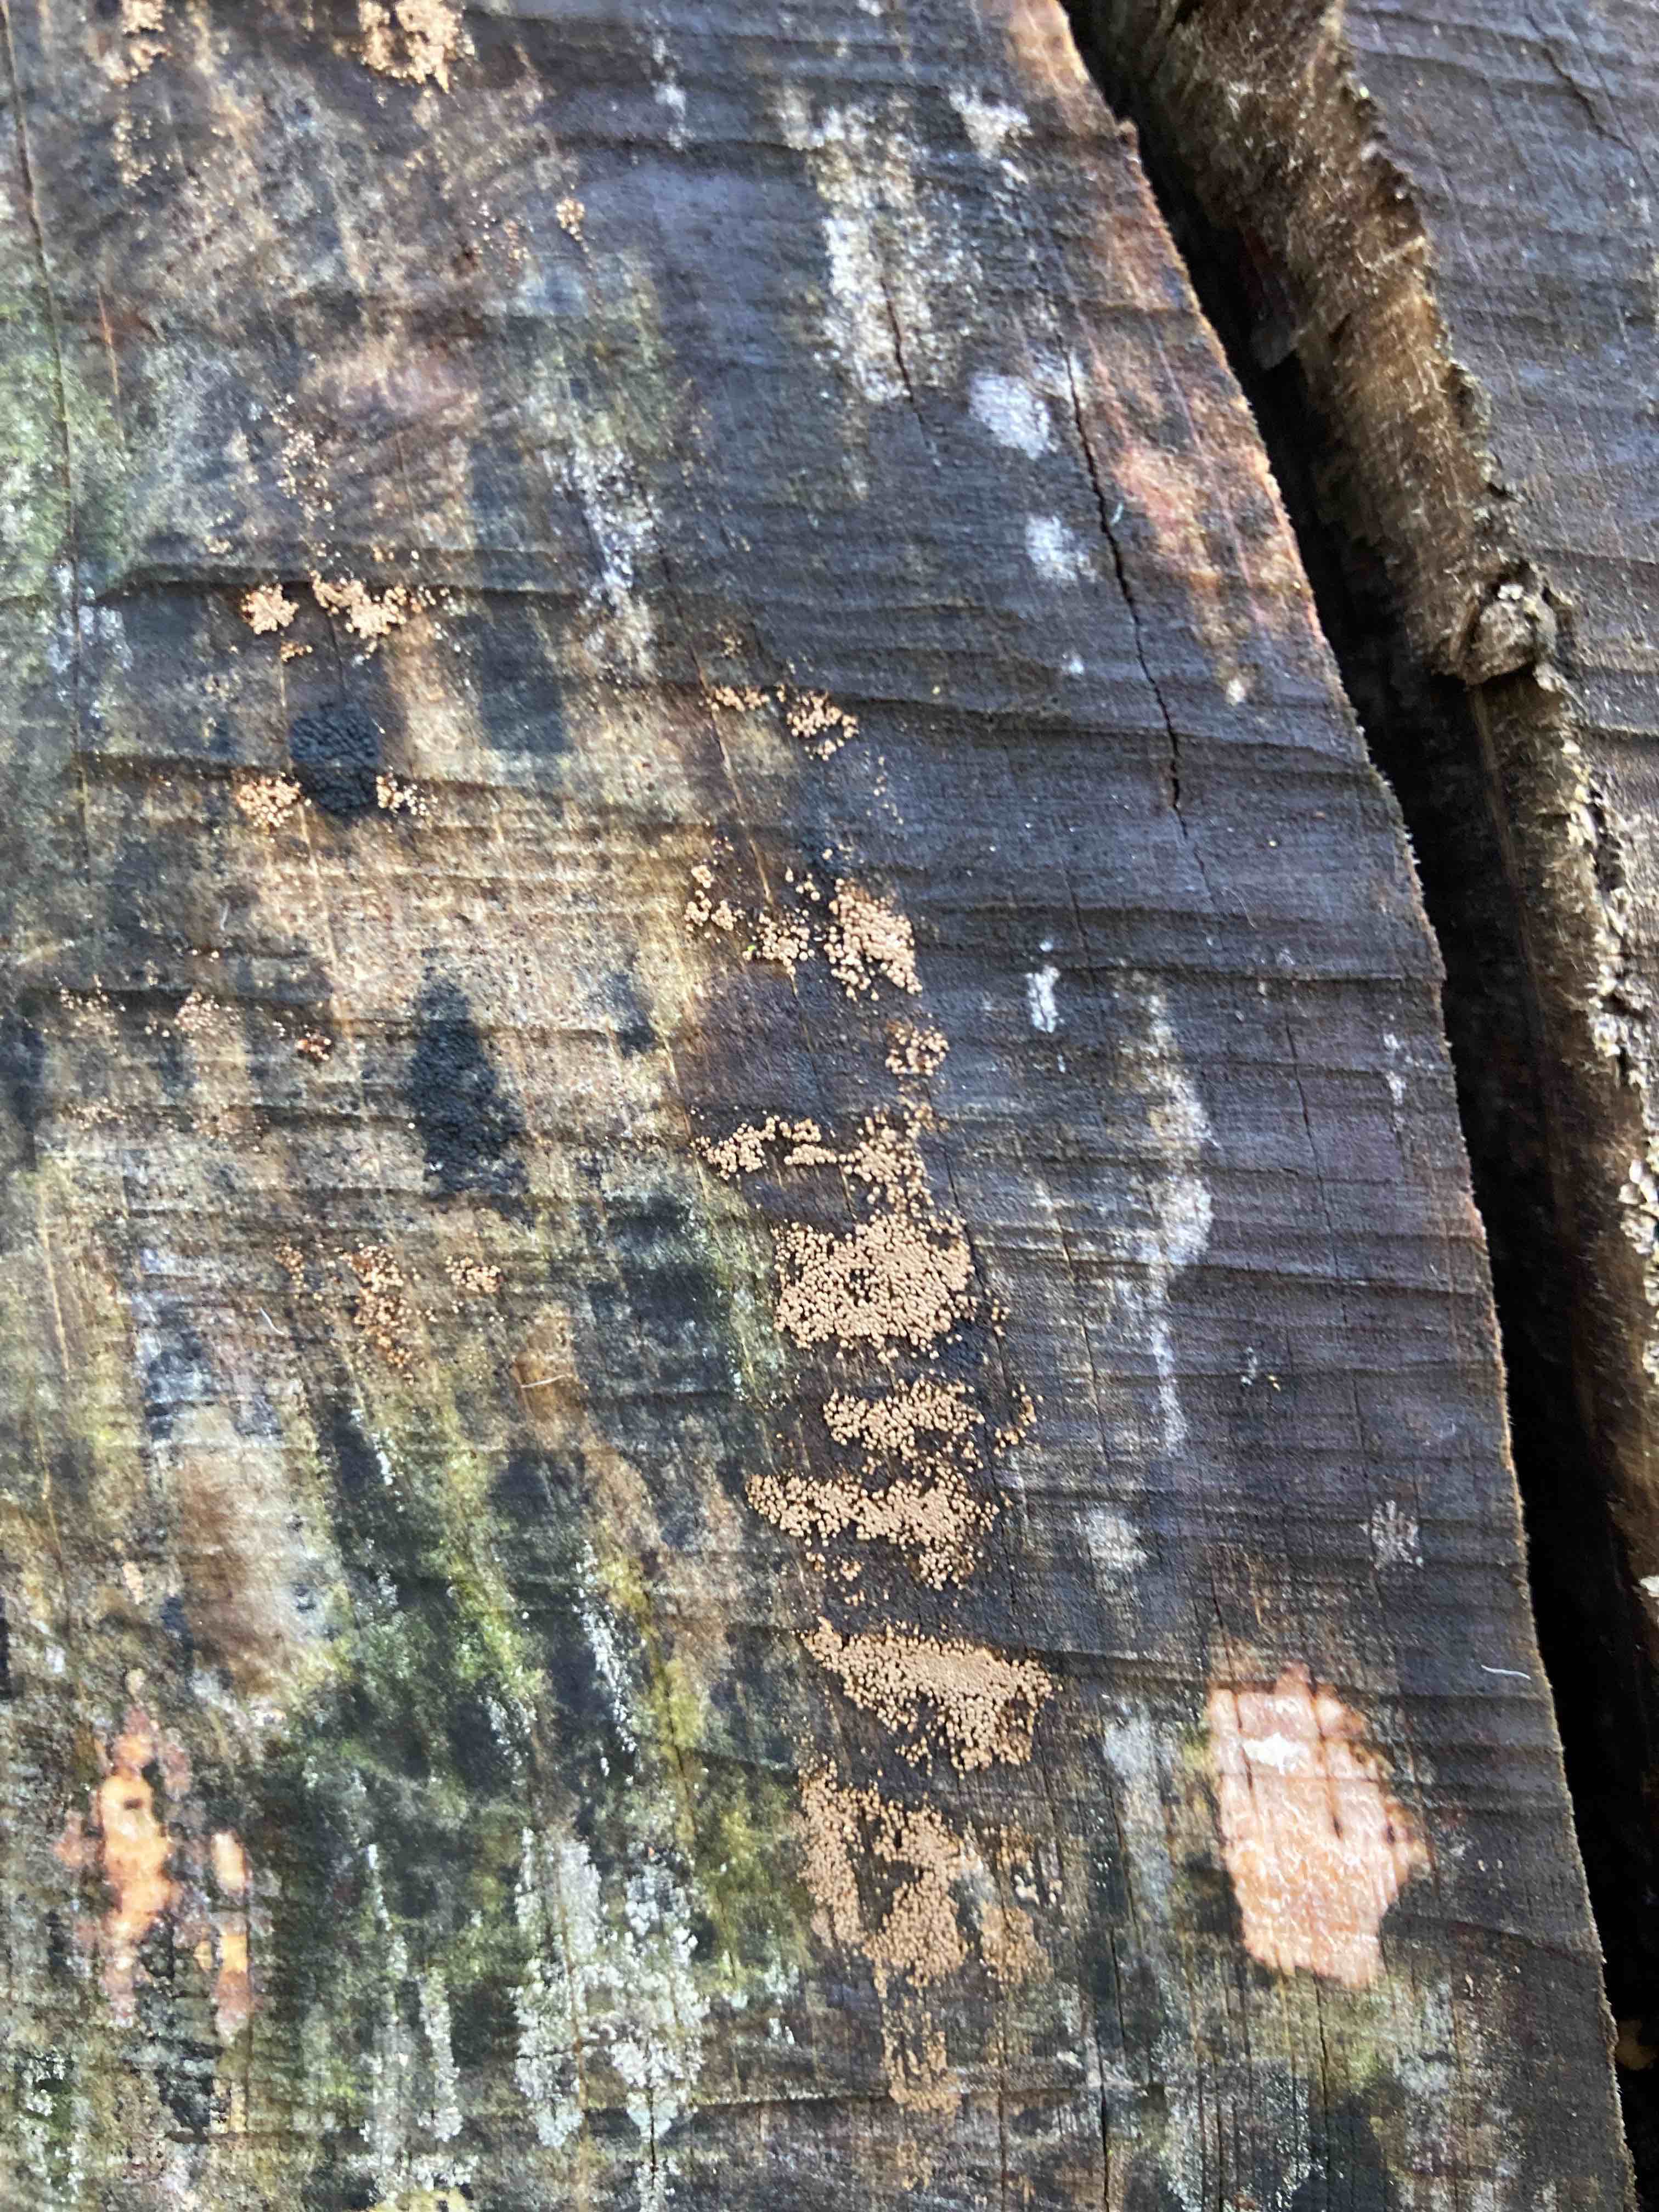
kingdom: Fungi
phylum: Basidiomycota
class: Agaricomycetes
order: Agaricales
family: Niaceae
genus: Merismodes
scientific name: Merismodes anomala
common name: almindelig læderskål
